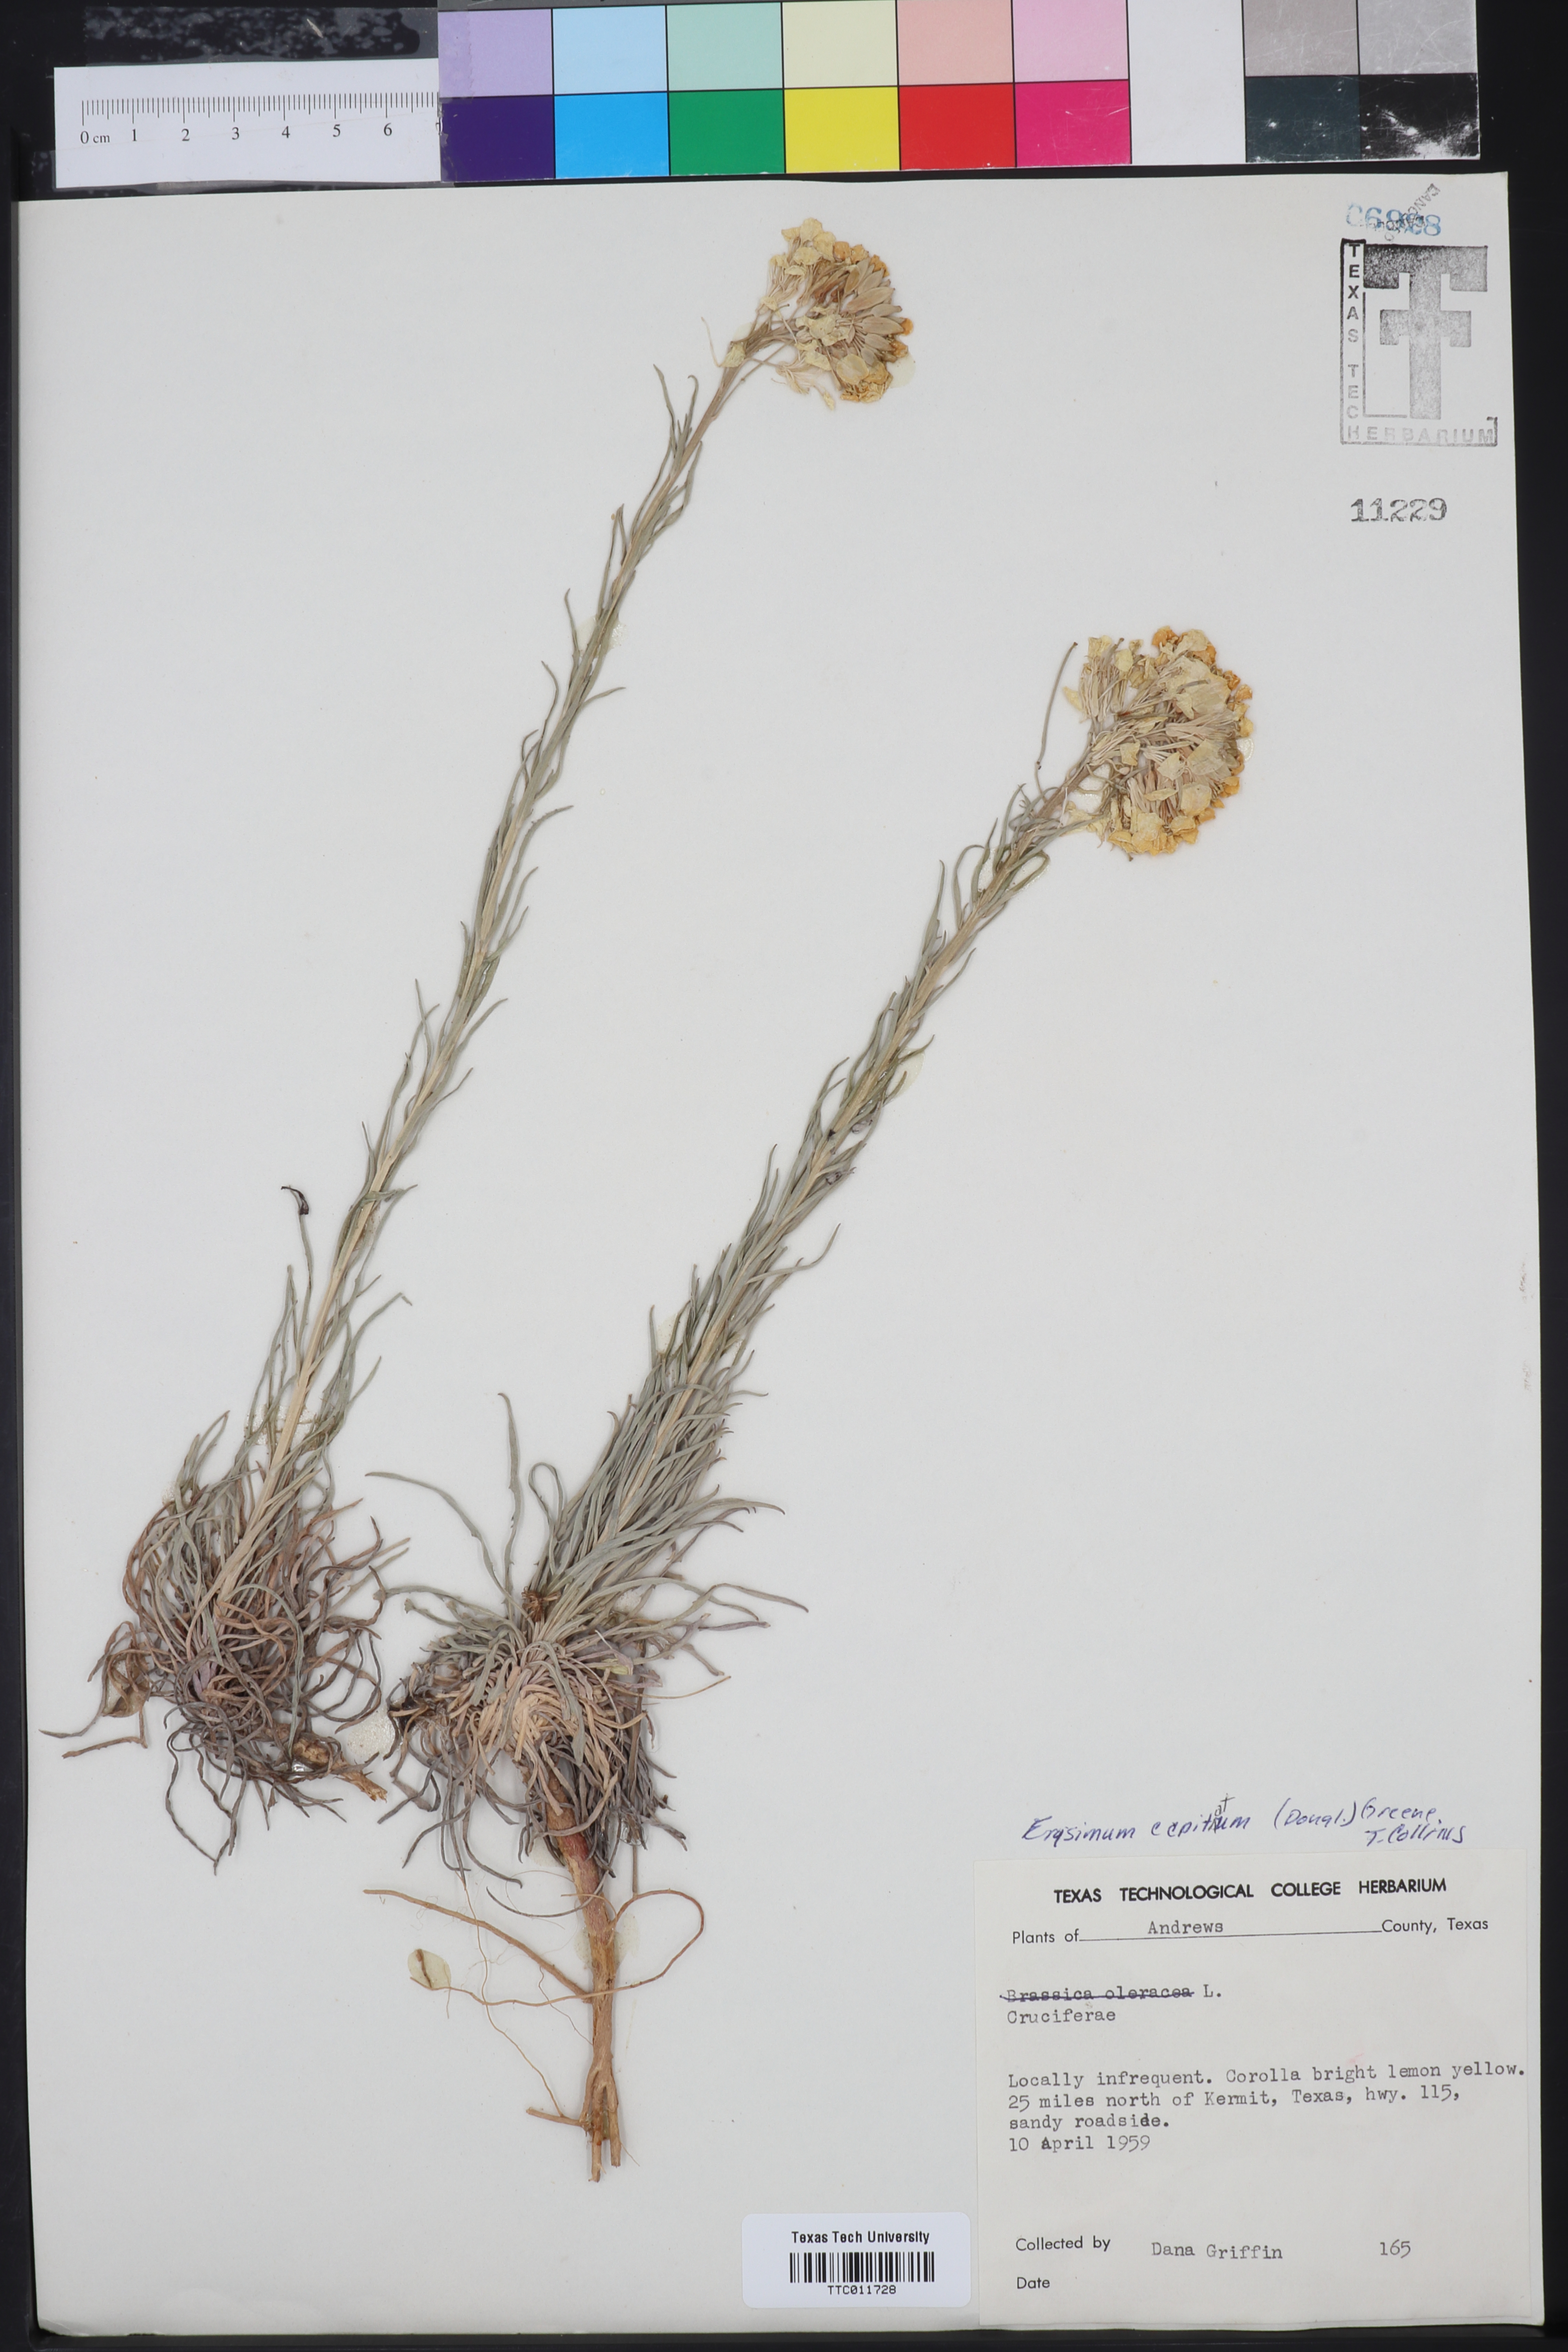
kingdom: Plantae
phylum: Tracheophyta
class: Magnoliopsida
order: Brassicales
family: Brassicaceae
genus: Erysimum
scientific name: Erysimum capitatum
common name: Western wallflower
